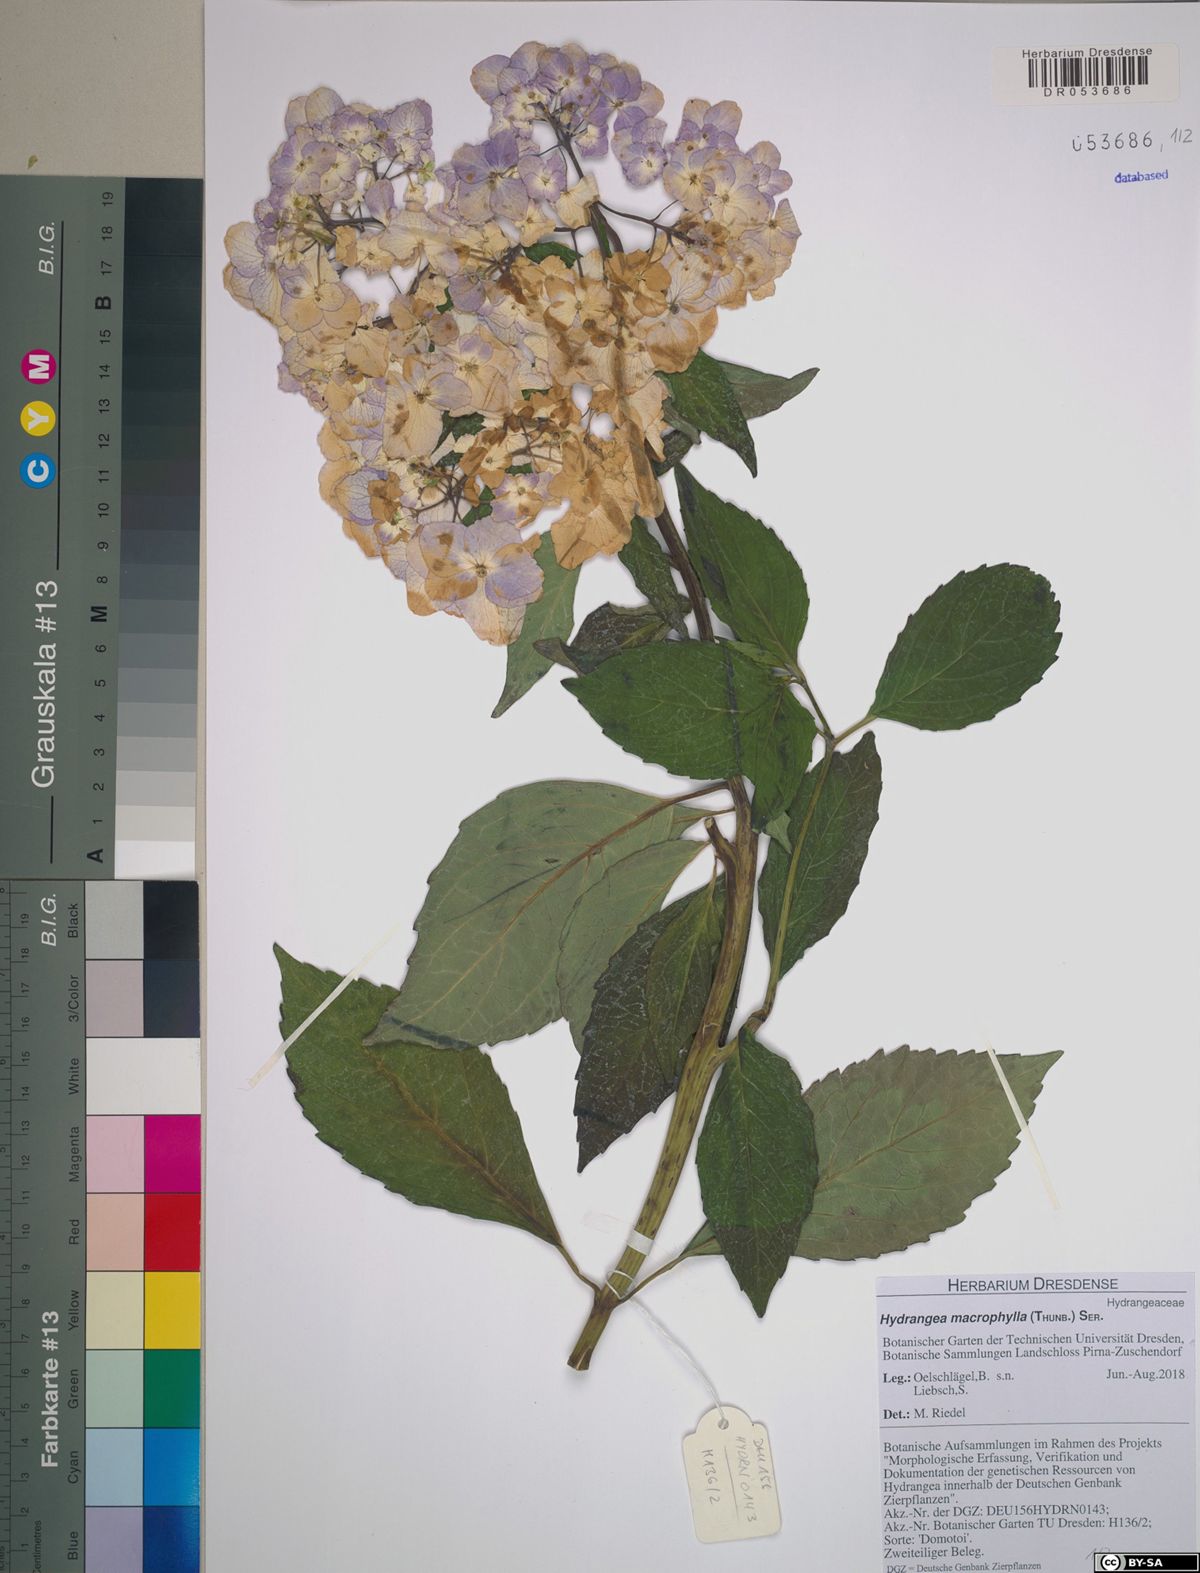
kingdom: Plantae
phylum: Tracheophyta
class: Magnoliopsida
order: Cornales
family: Hydrangeaceae
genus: Hydrangea
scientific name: Hydrangea macrophylla
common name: Hydrangea
